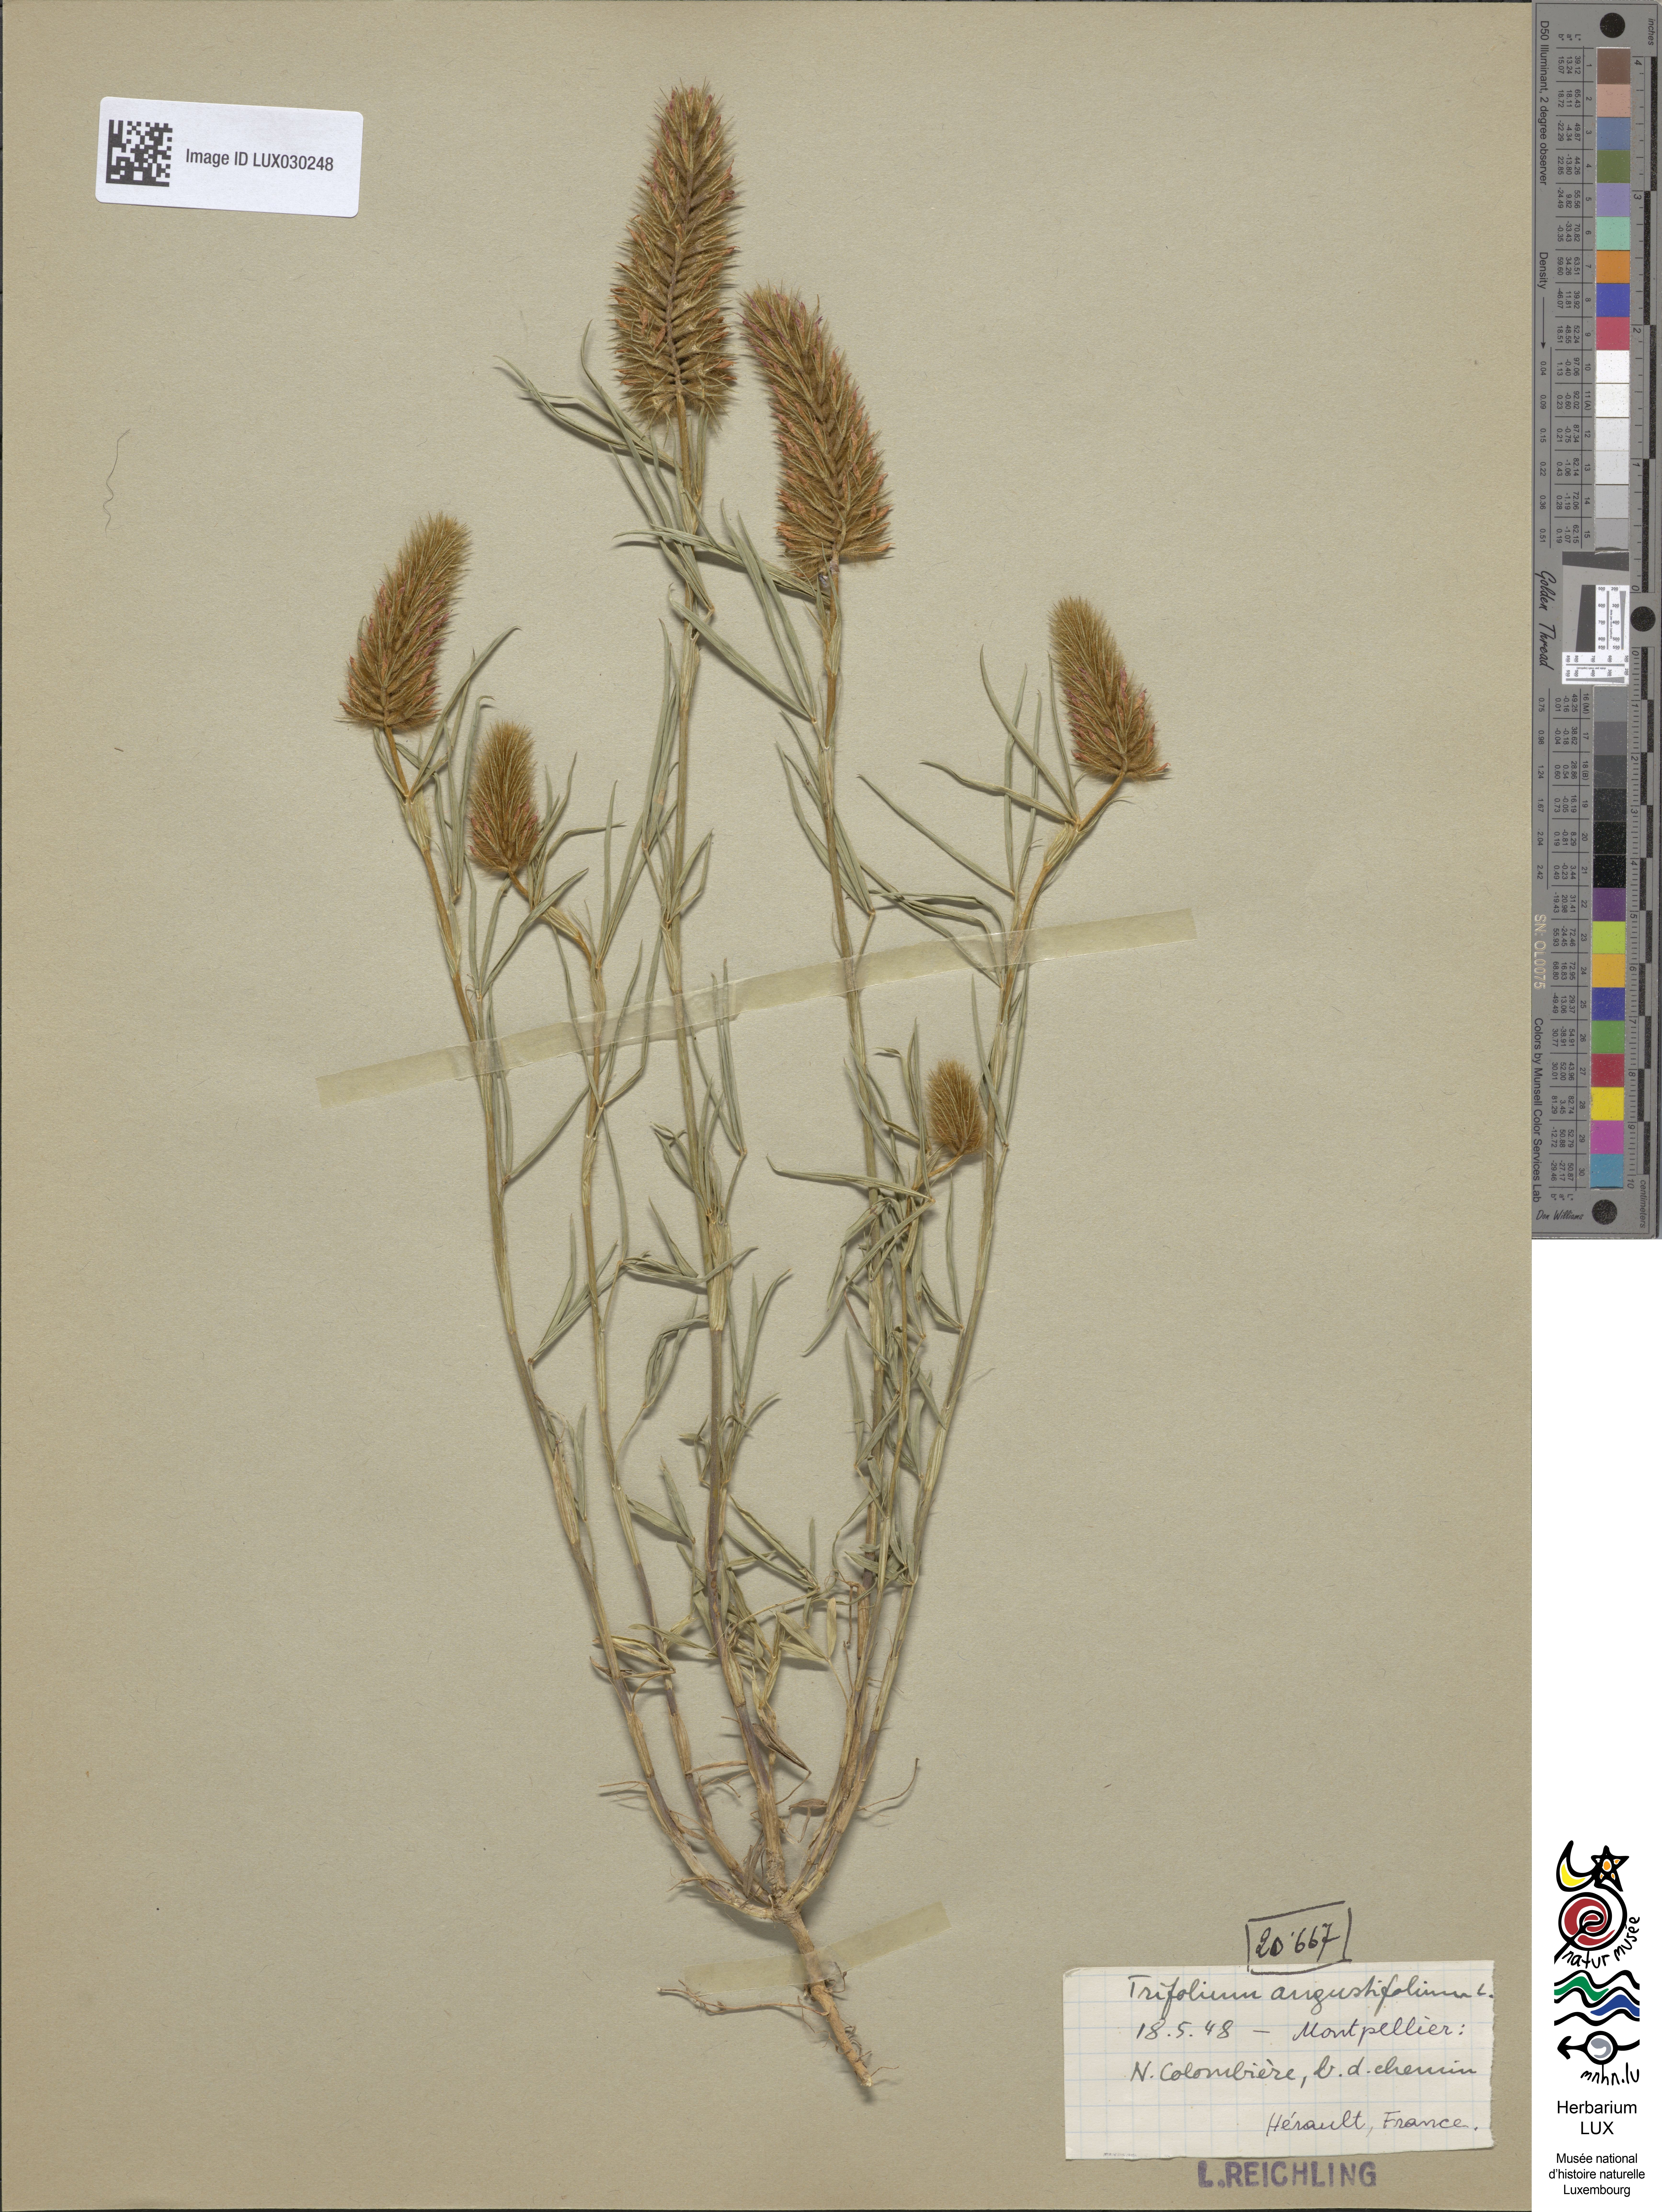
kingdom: Plantae
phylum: Tracheophyta
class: Magnoliopsida
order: Fabales
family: Fabaceae
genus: Trifolium
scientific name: Trifolium angustifolium
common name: Narrow clover
